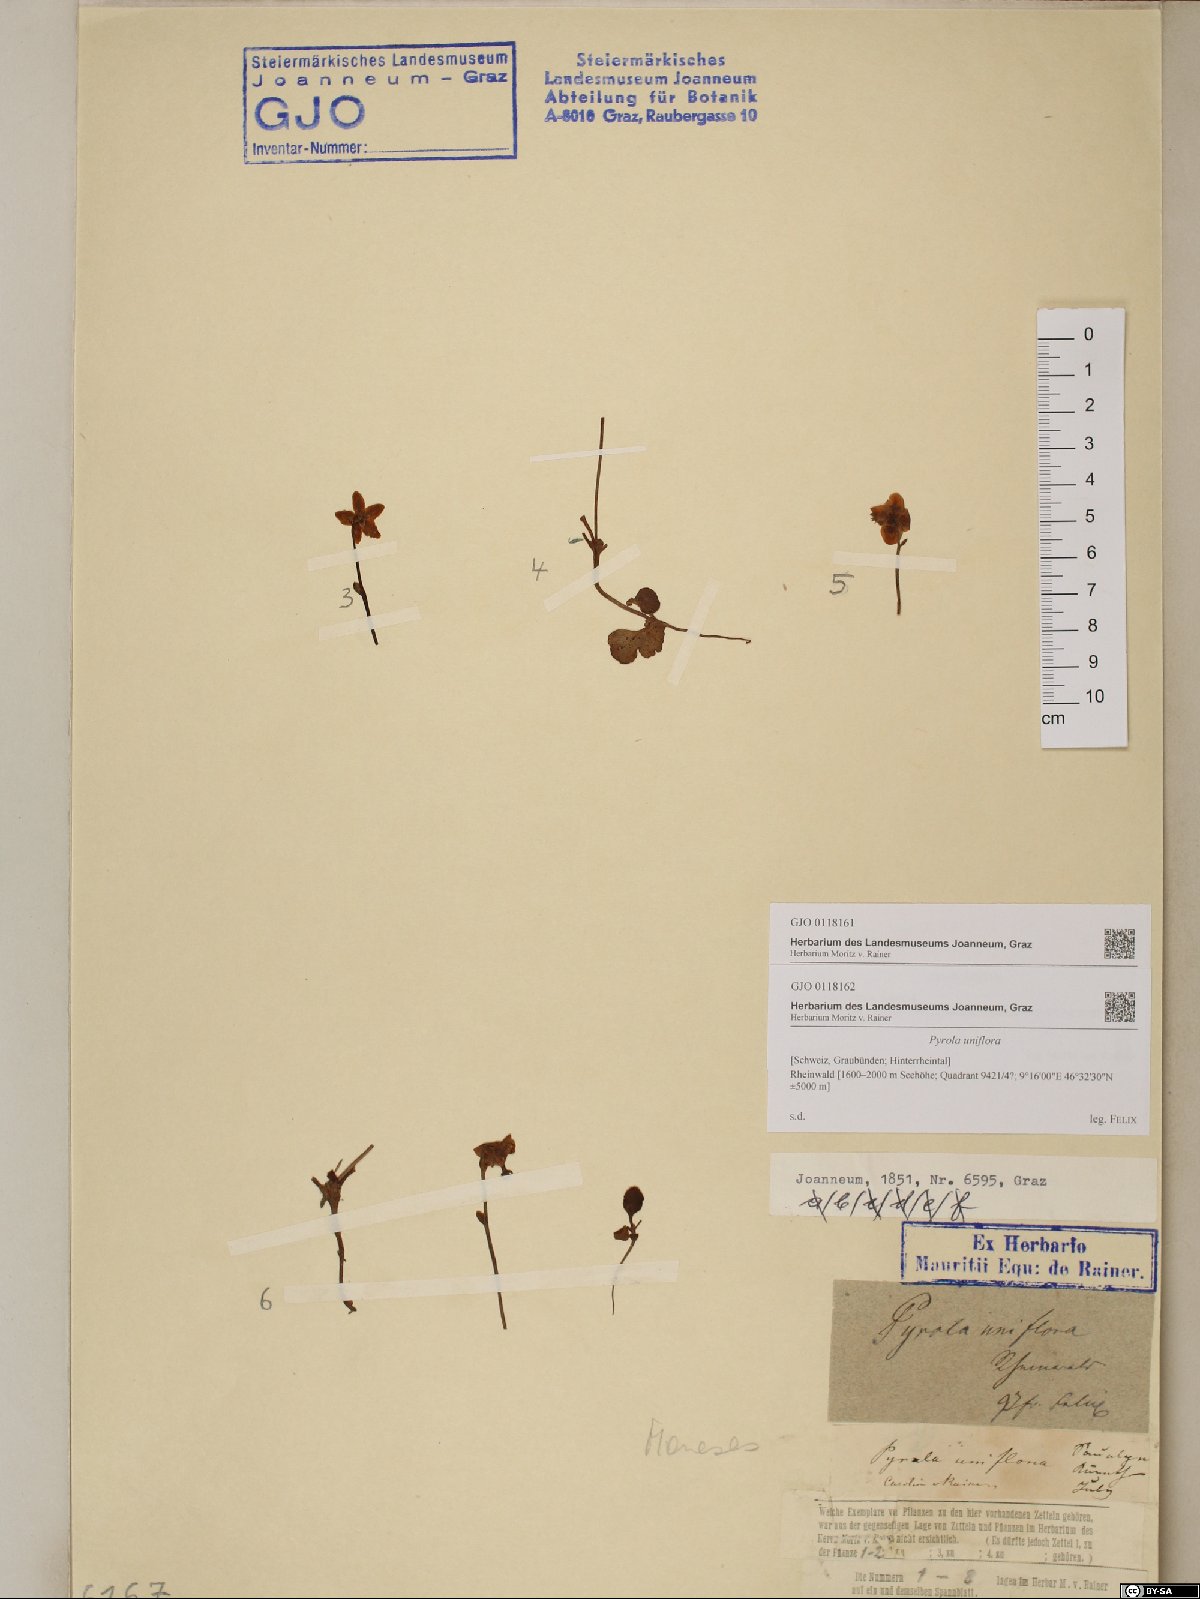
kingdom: Plantae
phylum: Tracheophyta
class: Magnoliopsida
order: Ericales
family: Ericaceae
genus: Moneses
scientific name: Moneses uniflora
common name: One-flowered wintergreen
